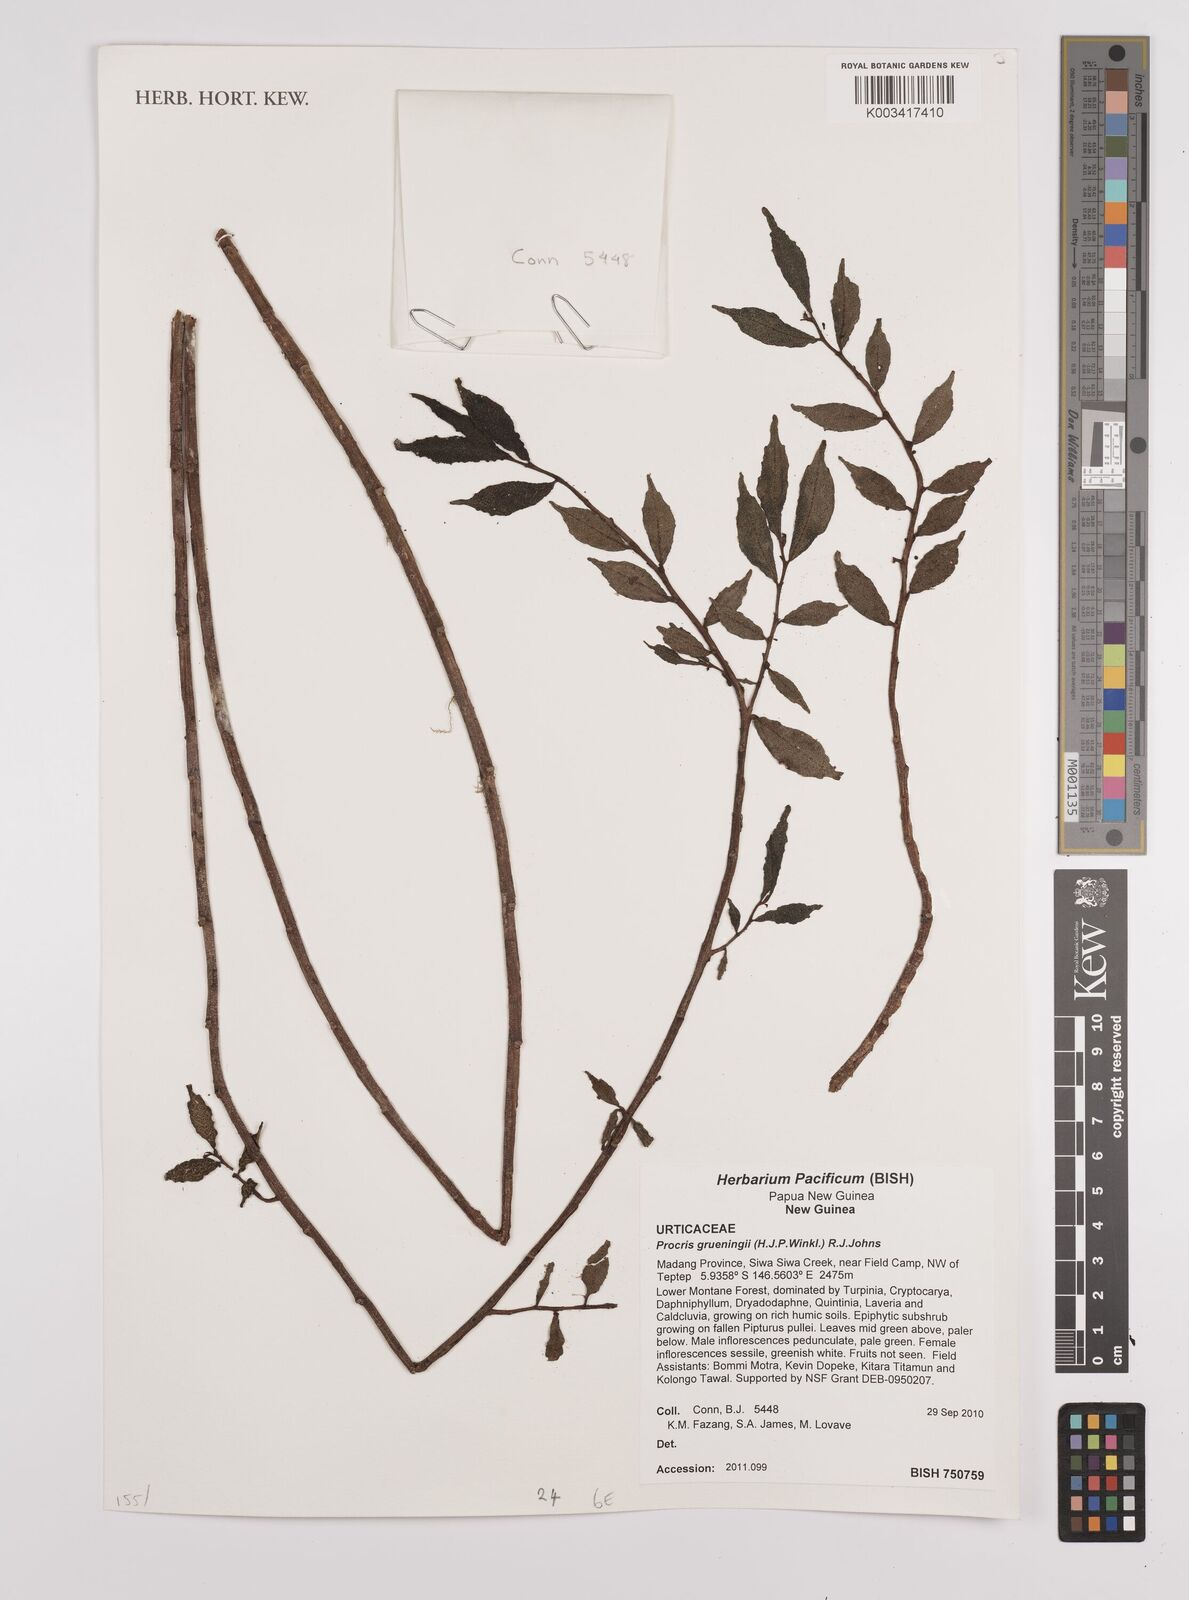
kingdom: Plantae
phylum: Tracheophyta
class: Magnoliopsida
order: Rosales
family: Urticaceae
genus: Procris
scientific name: Procris grueningii
